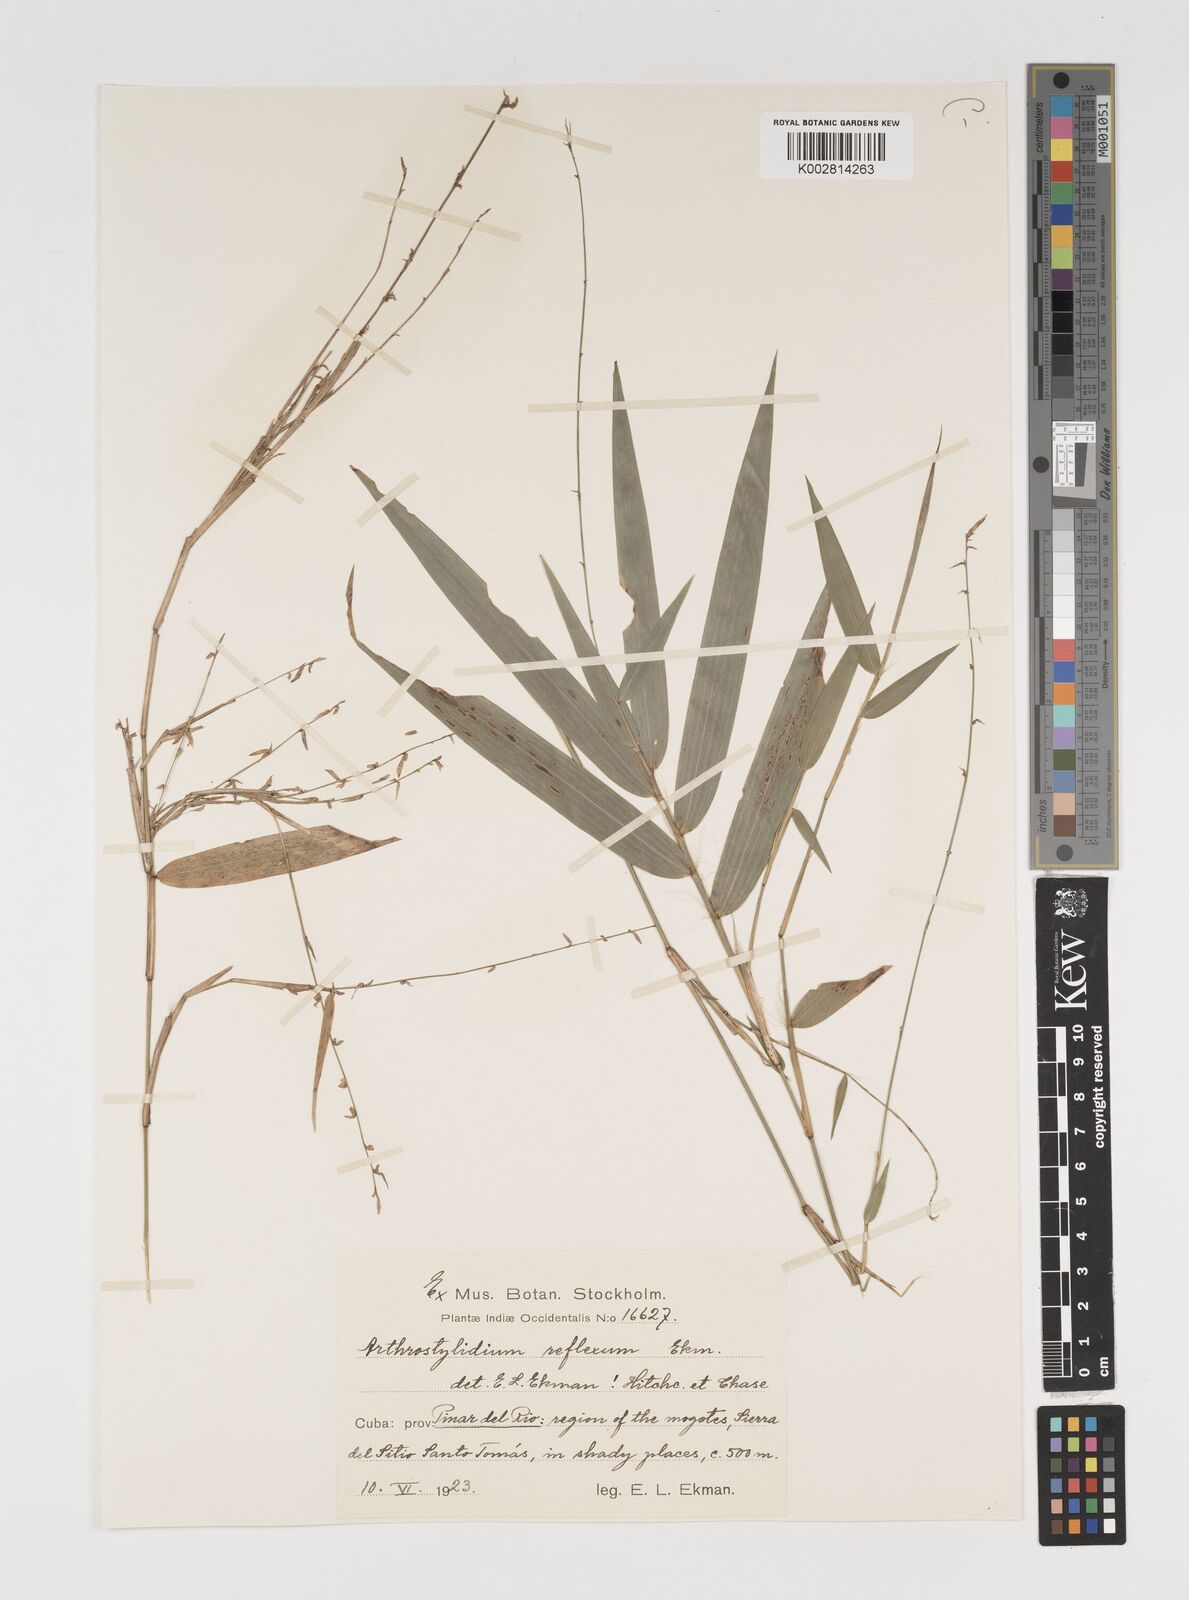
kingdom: Plantae
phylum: Tracheophyta
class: Liliopsida
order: Poales
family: Poaceae
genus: Arthrostylidium
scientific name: Arthrostylidium reflexum
